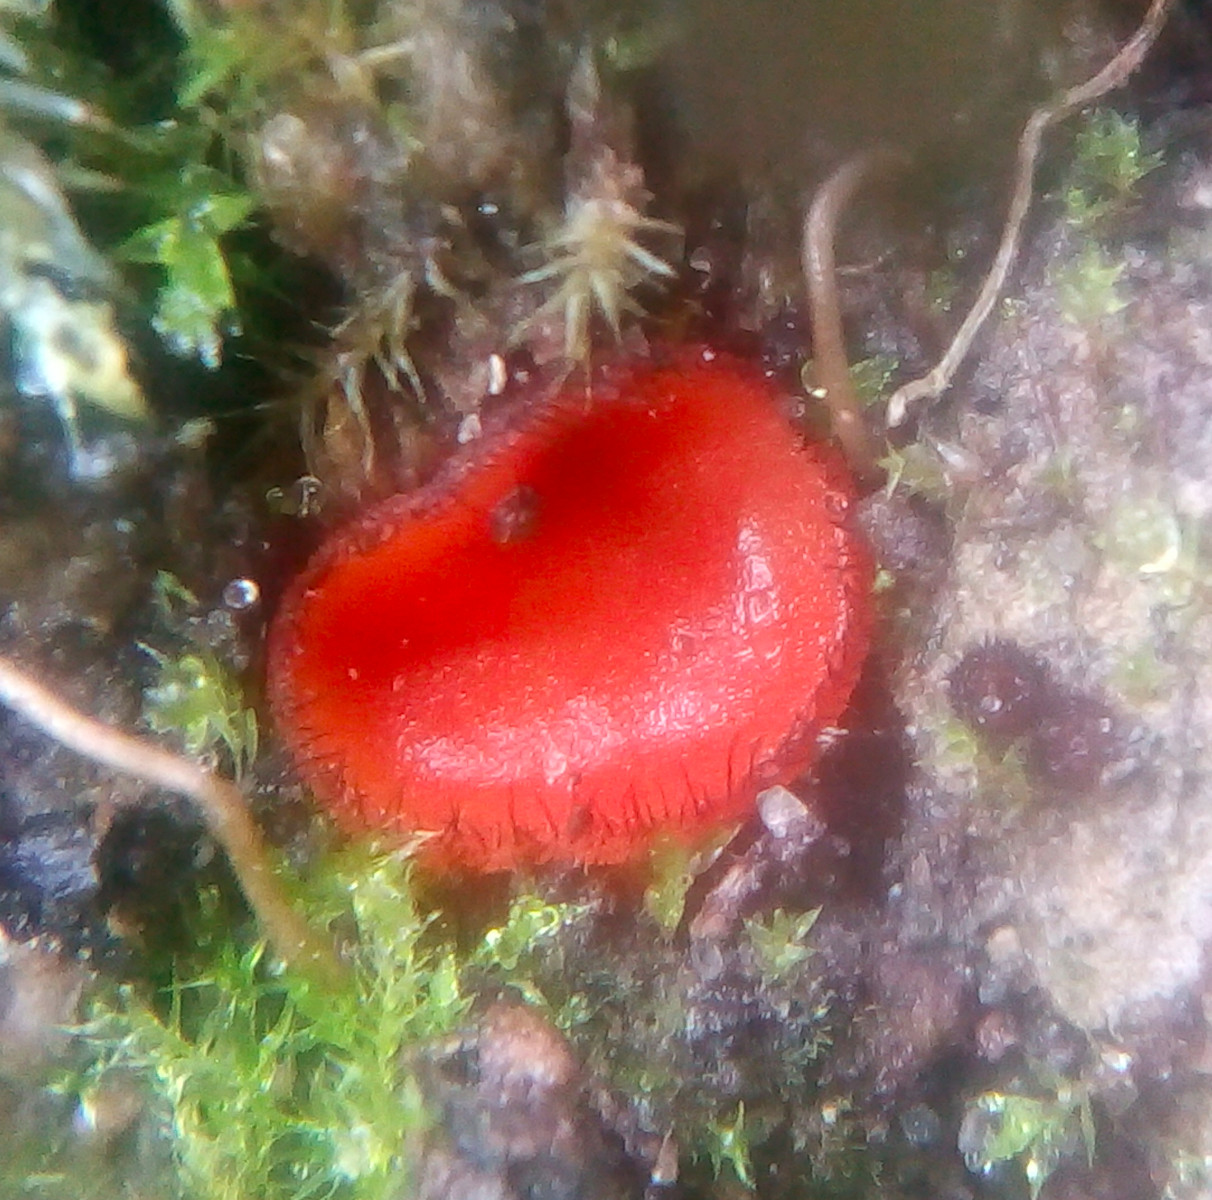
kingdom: Fungi
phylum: Ascomycota
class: Pezizomycetes
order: Pezizales
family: Pyronemataceae
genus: Scutellinia
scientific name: Scutellinia scutellata
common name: frynset skjoldbæger
